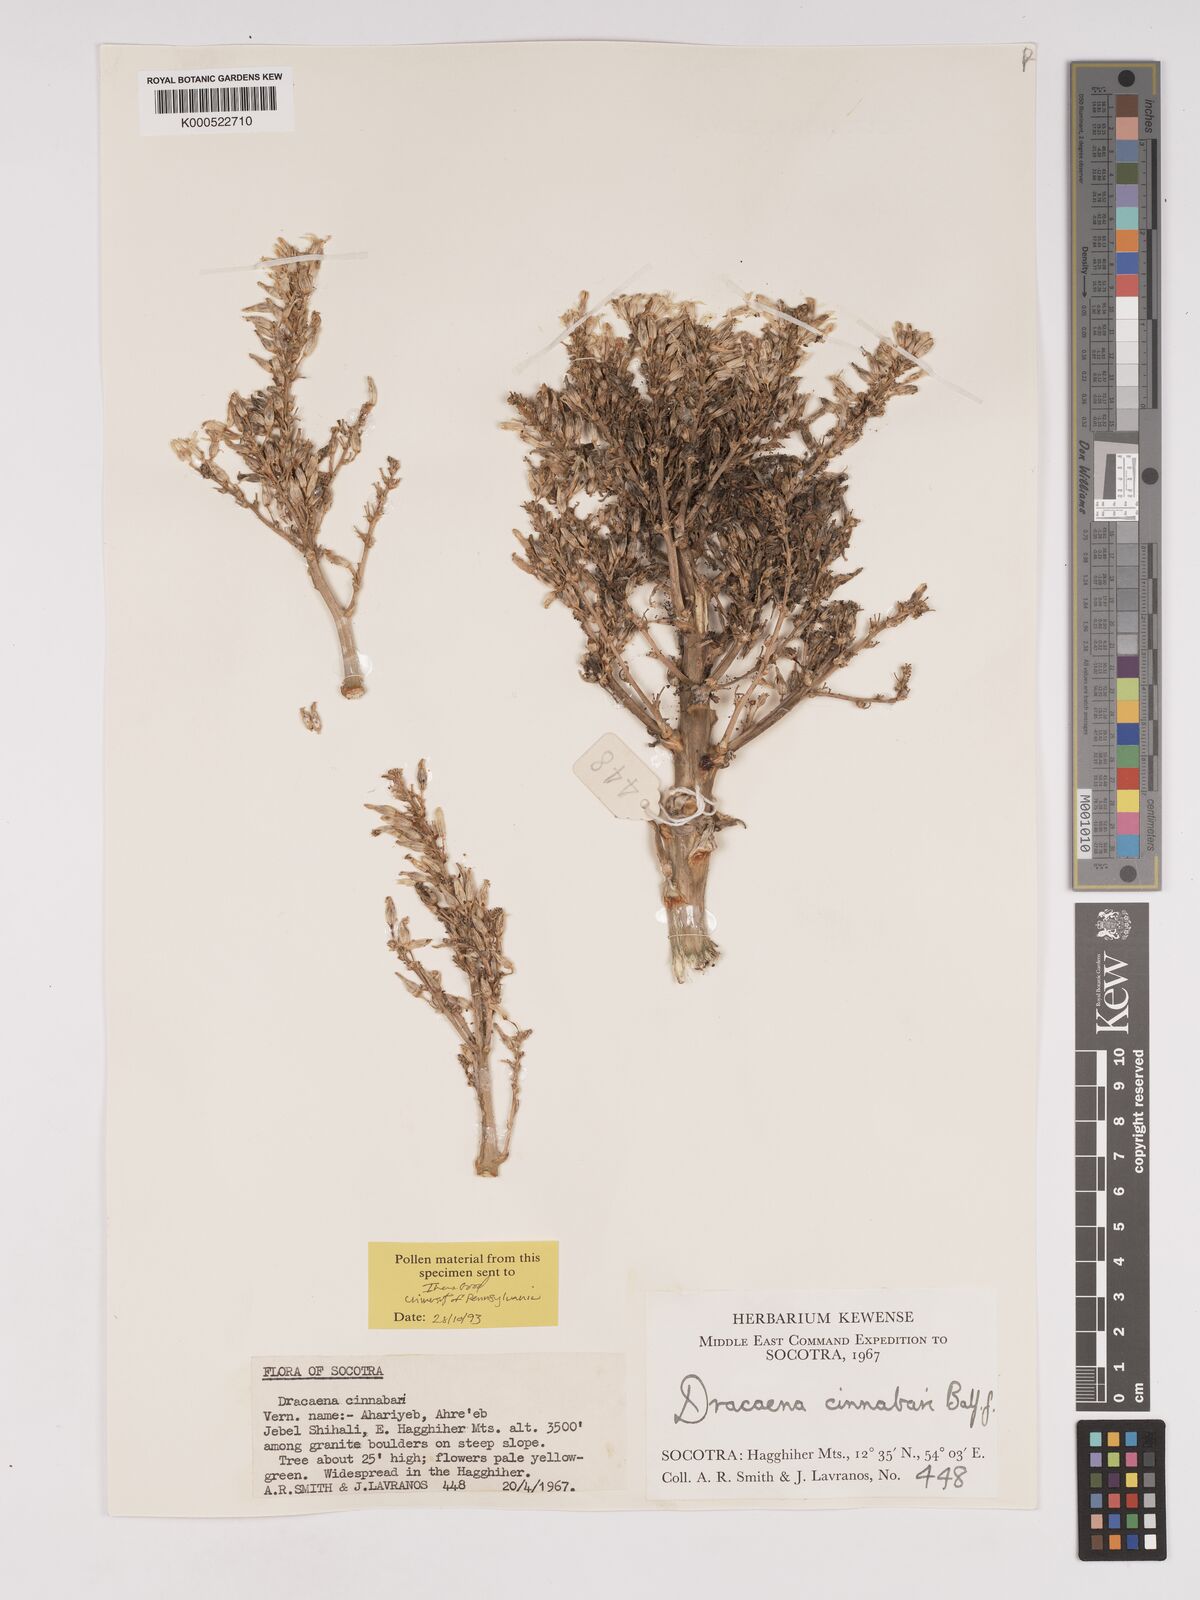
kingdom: Plantae
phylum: Tracheophyta
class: Liliopsida
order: Asparagales
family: Asparagaceae
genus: Dracaena
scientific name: Dracaena cinnabari
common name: Dragon's blood tree
